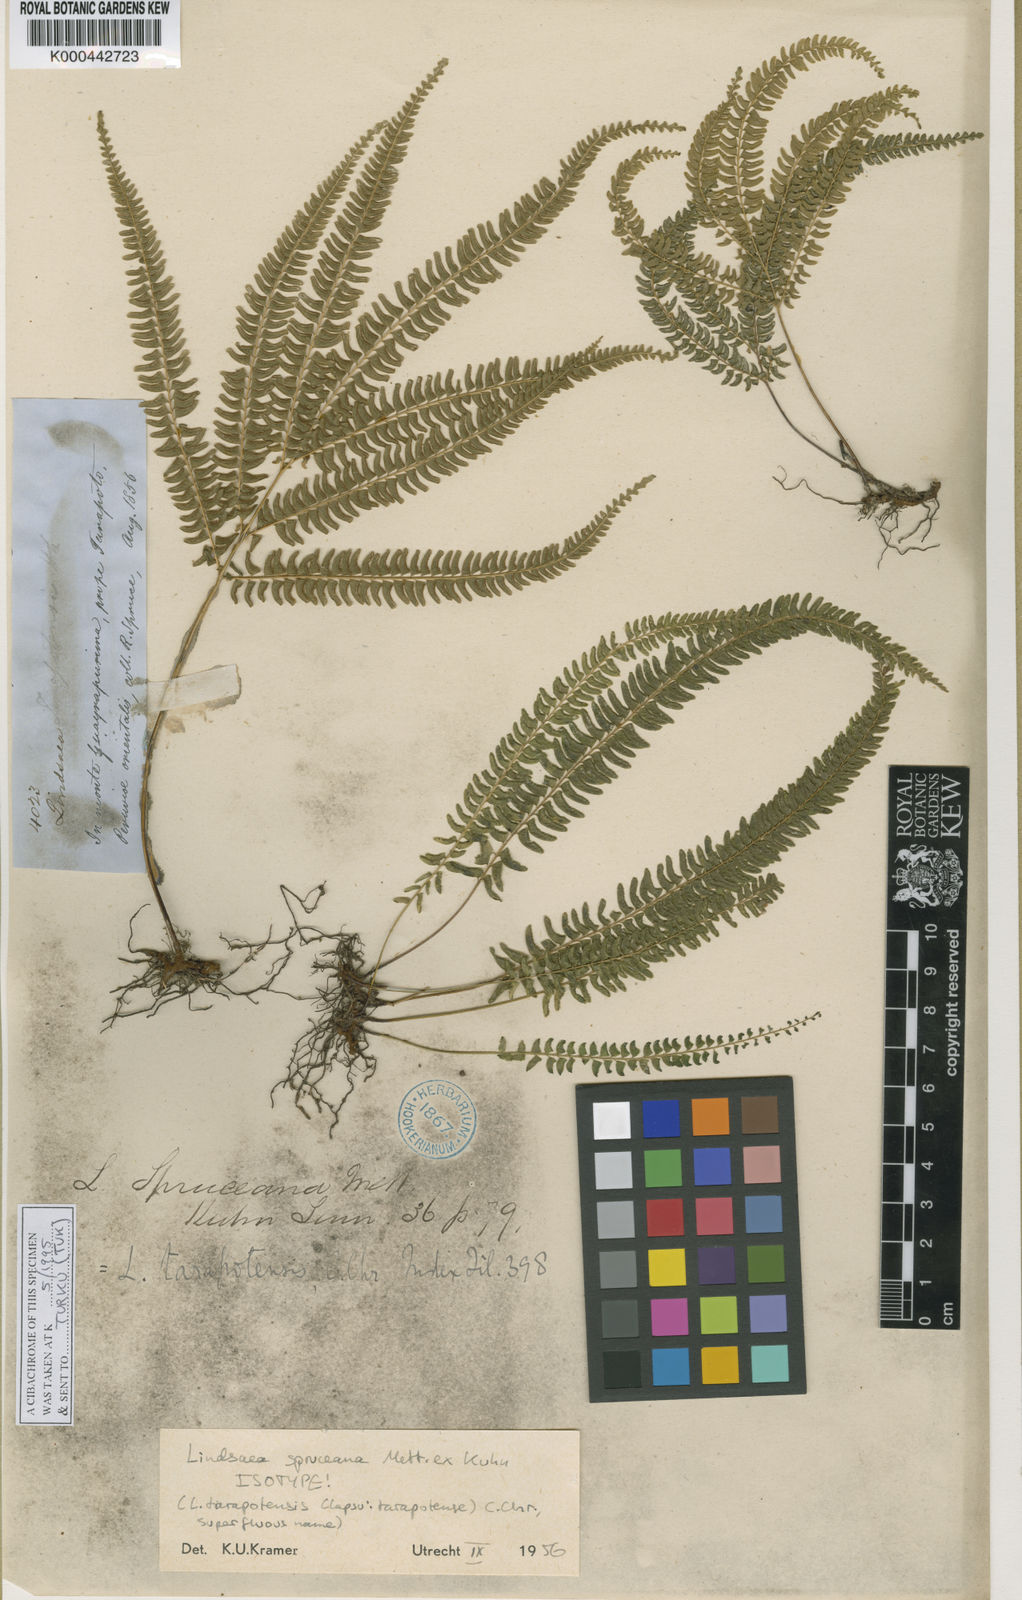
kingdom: Plantae
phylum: Tracheophyta
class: Polypodiopsida
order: Polypodiales
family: Lindsaeaceae
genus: Lindsaea
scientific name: Lindsaea spruceana
